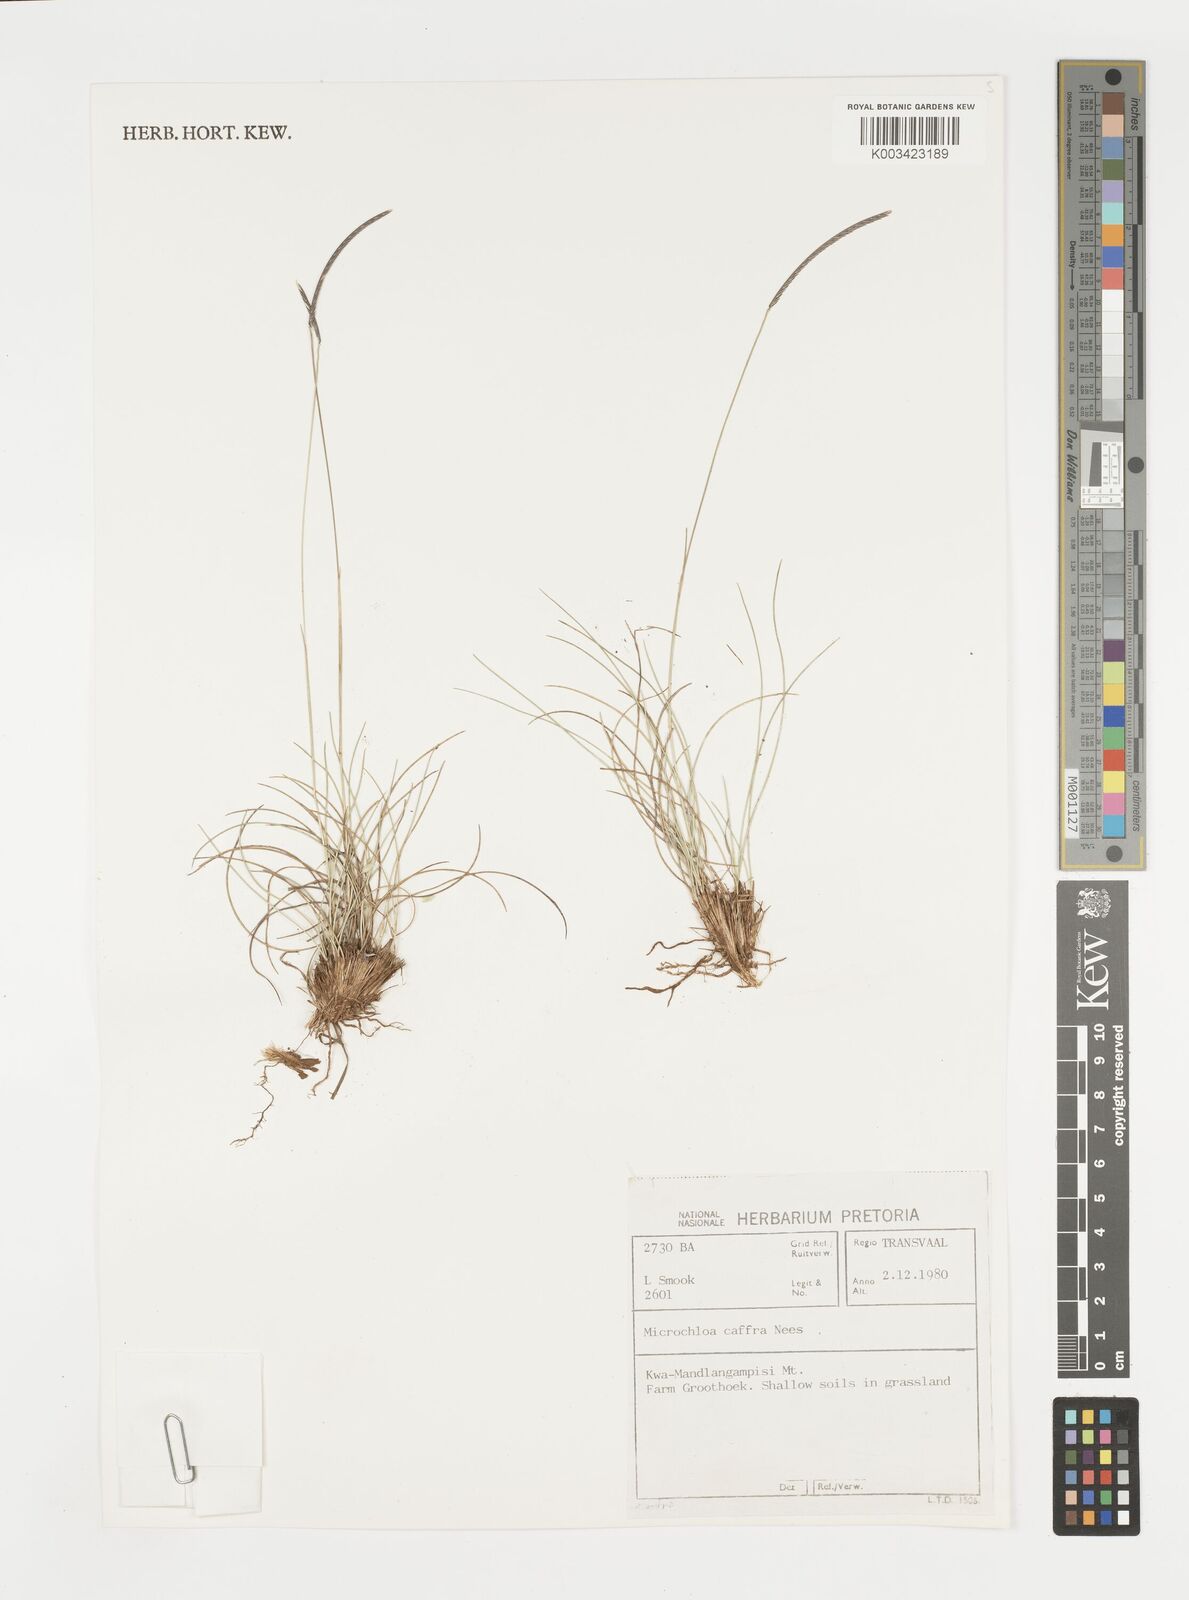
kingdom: Plantae
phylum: Tracheophyta
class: Liliopsida
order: Poales
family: Poaceae
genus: Microchloa
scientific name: Microchloa caffra
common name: Pincushion grass
